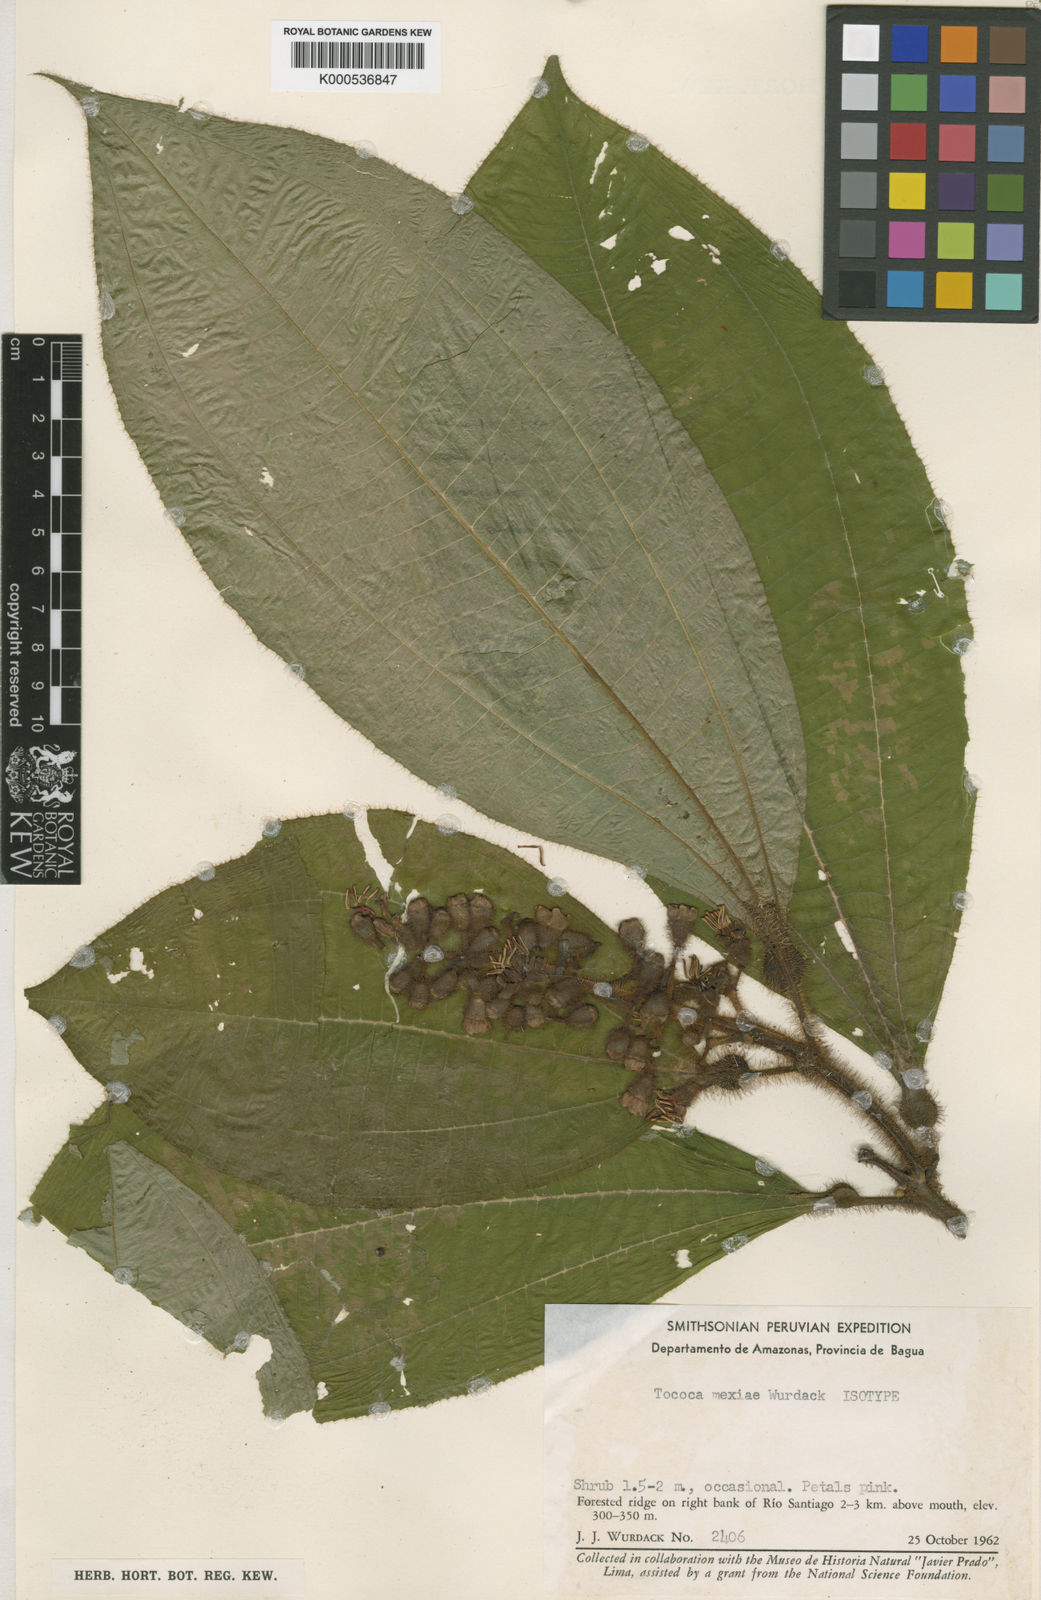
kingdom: Plantae
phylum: Tracheophyta
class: Magnoliopsida
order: Myrtales
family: Melastomataceae
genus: Miconia
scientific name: Miconia tococa
